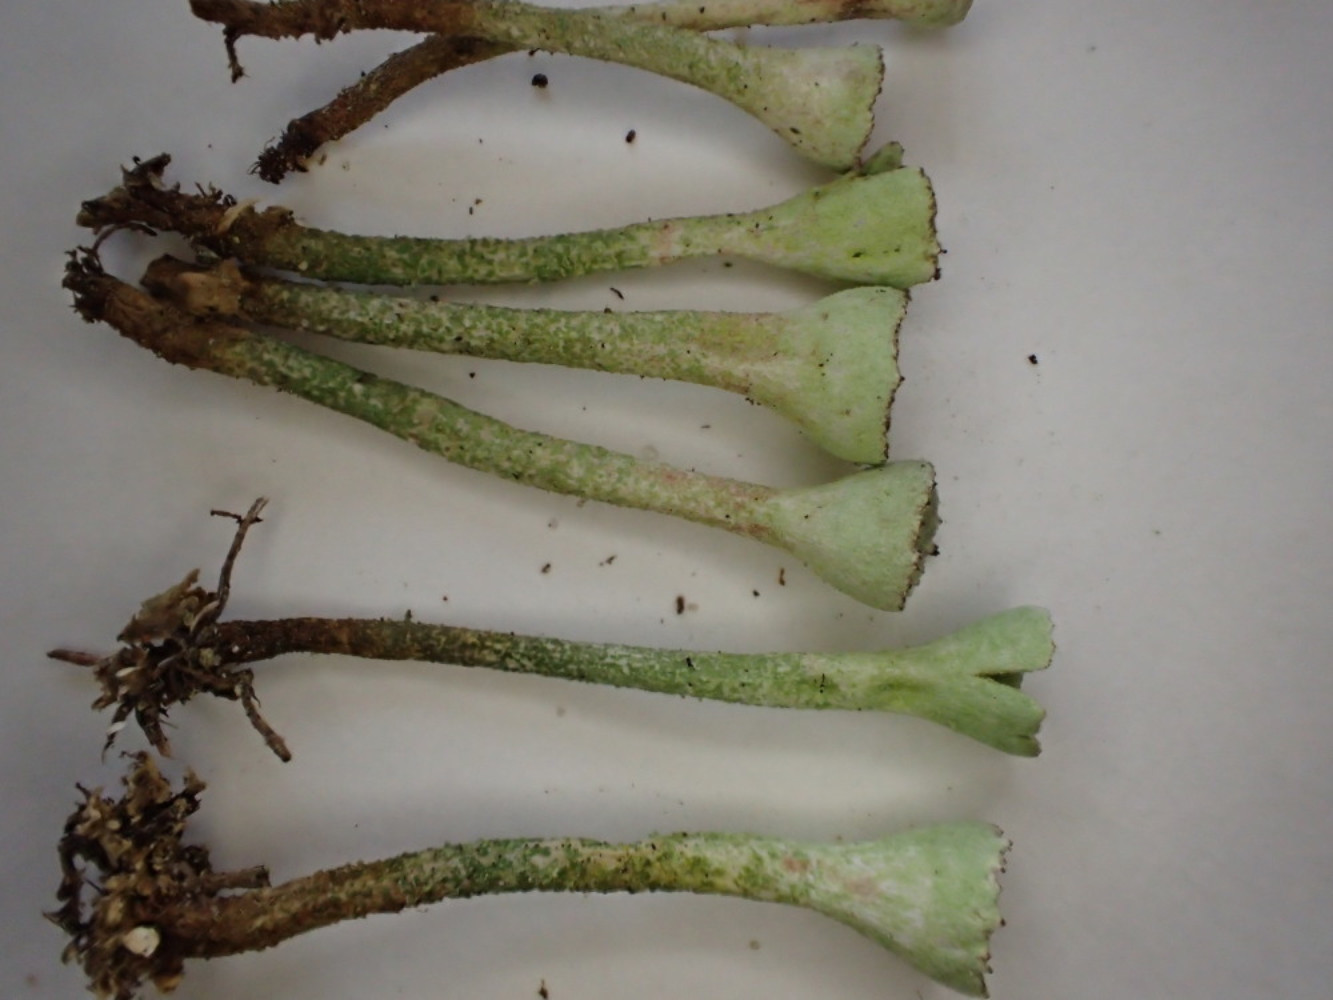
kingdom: Fungi
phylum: Ascomycota
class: Lecanoromycetes
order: Lecanorales
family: Cladoniaceae
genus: Cladonia
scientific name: Cladonia fimbriata
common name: bleggrøn bægerlav
